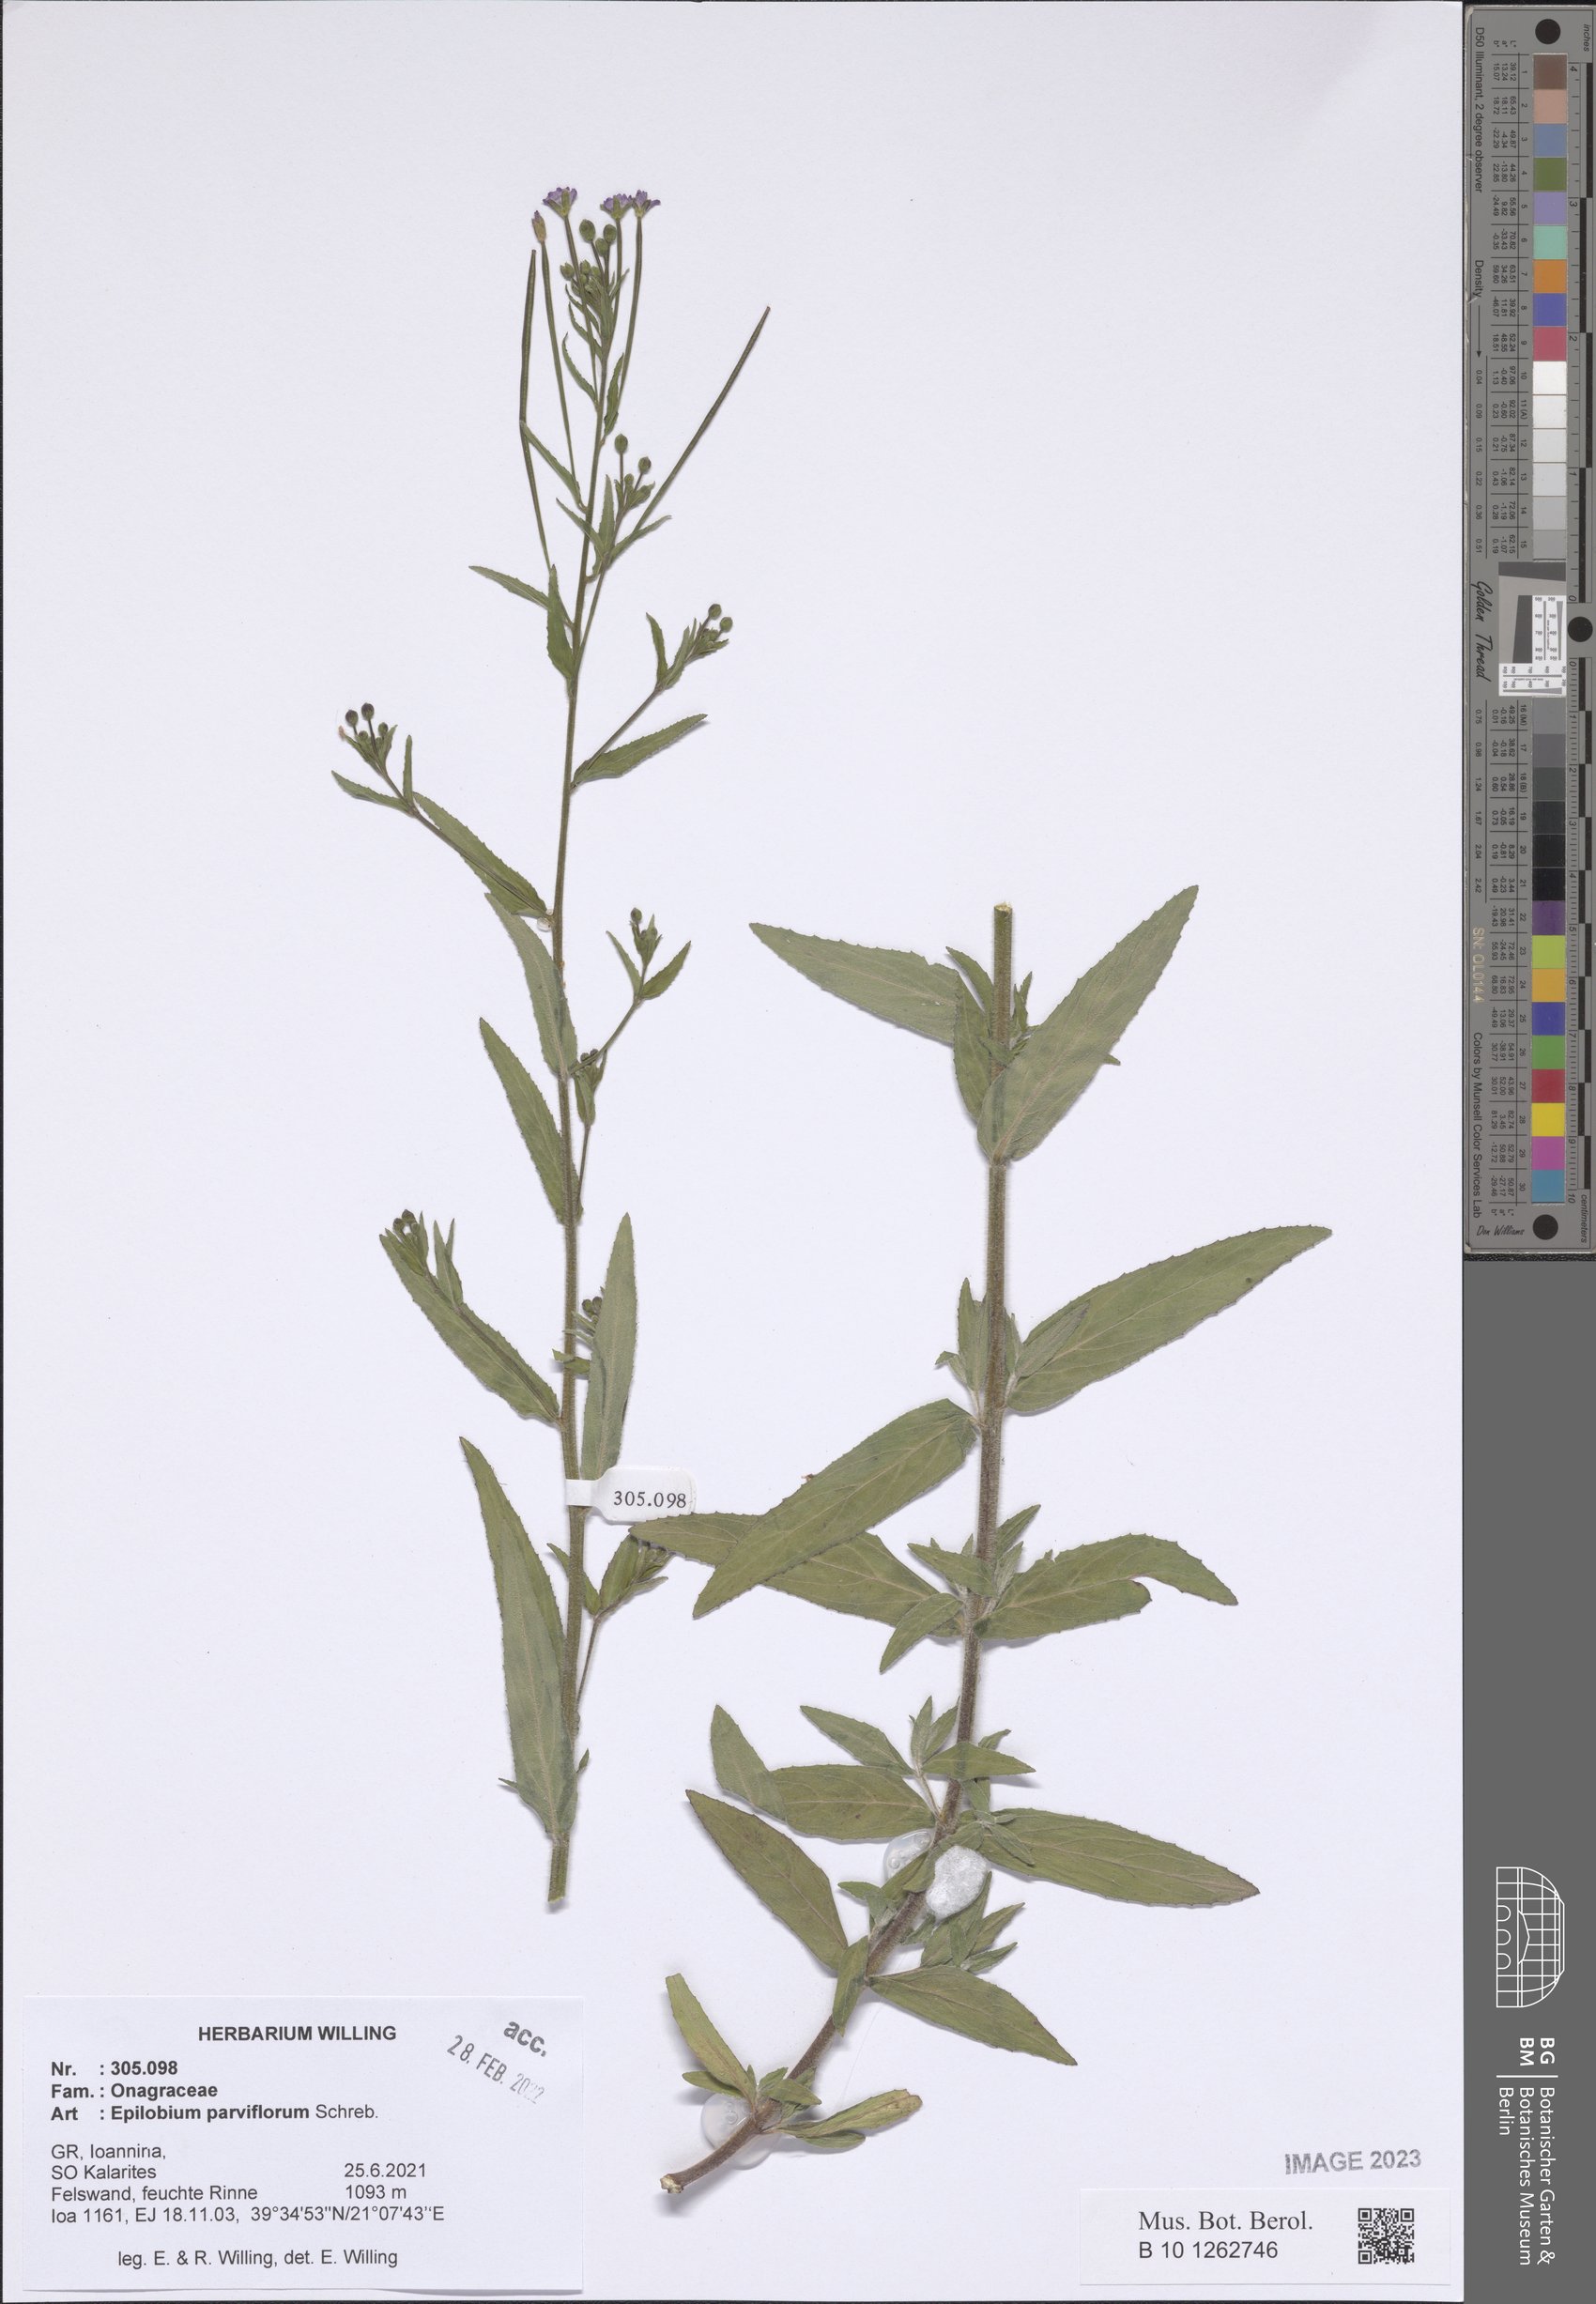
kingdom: Plantae
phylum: Tracheophyta
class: Magnoliopsida
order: Myrtales
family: Onagraceae
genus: Epilobium
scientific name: Epilobium parviflorum
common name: Hoary willowherb
